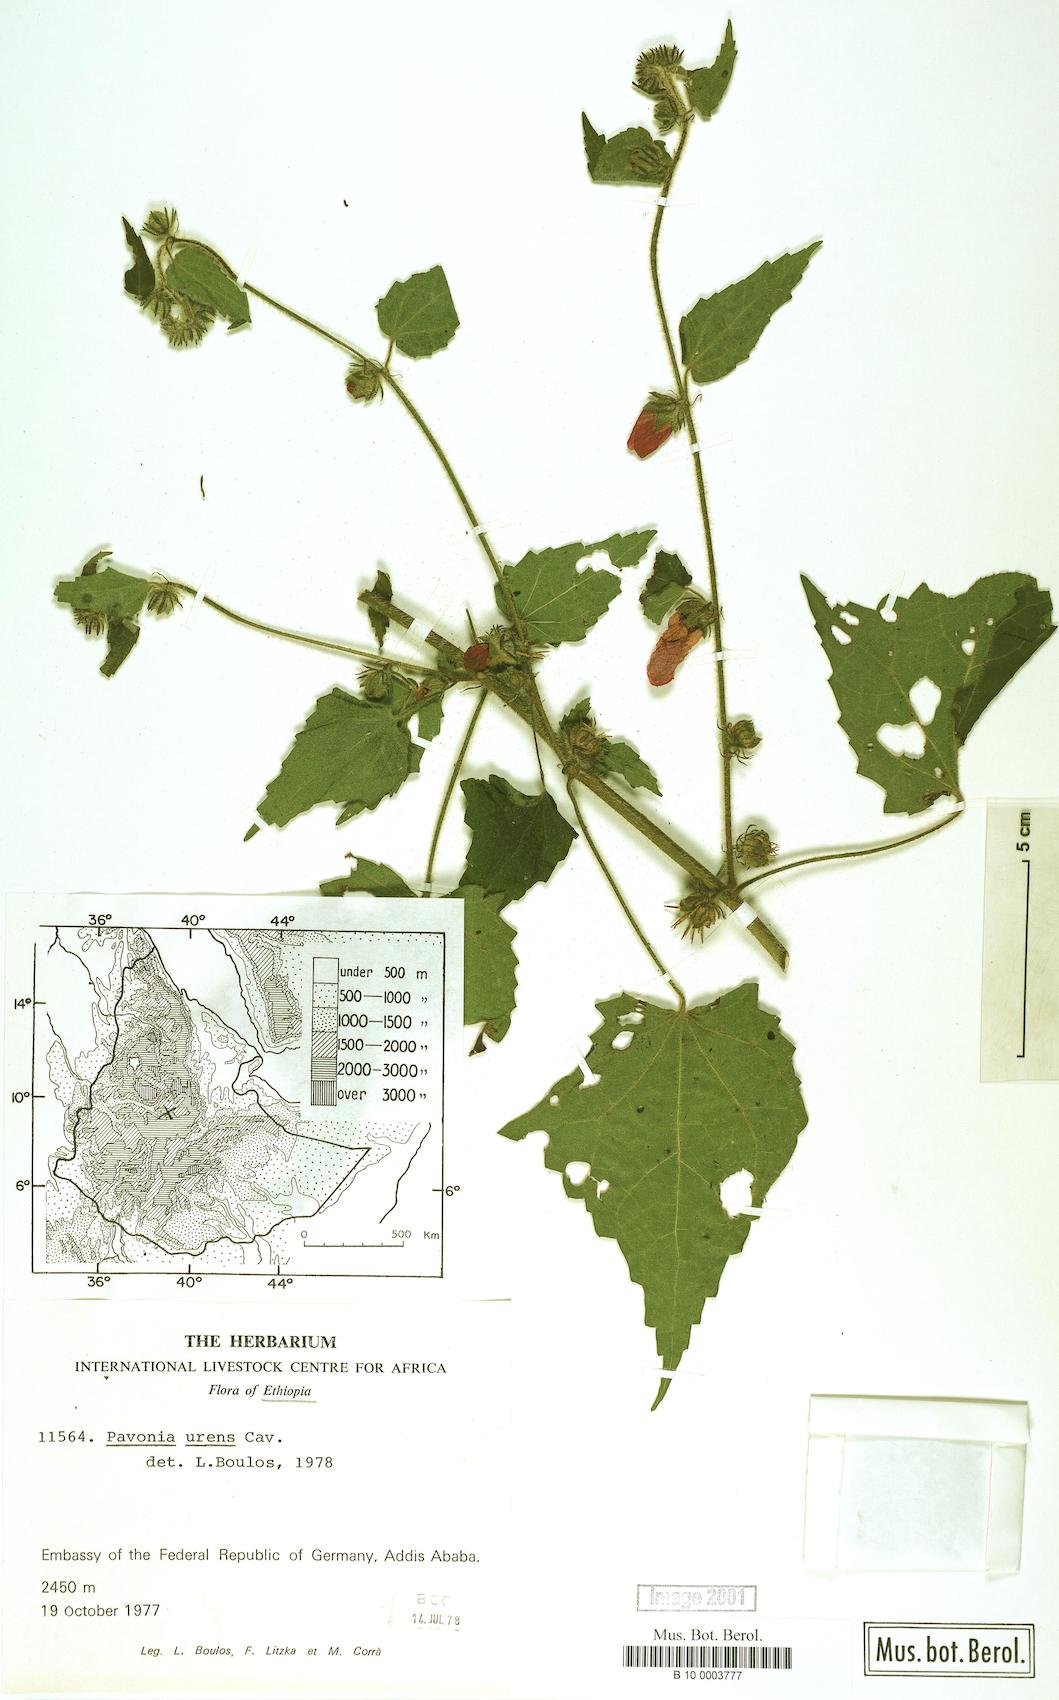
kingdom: Plantae
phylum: Tracheophyta
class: Magnoliopsida
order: Malvales
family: Malvaceae
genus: Pavonia
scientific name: Pavonia urens
